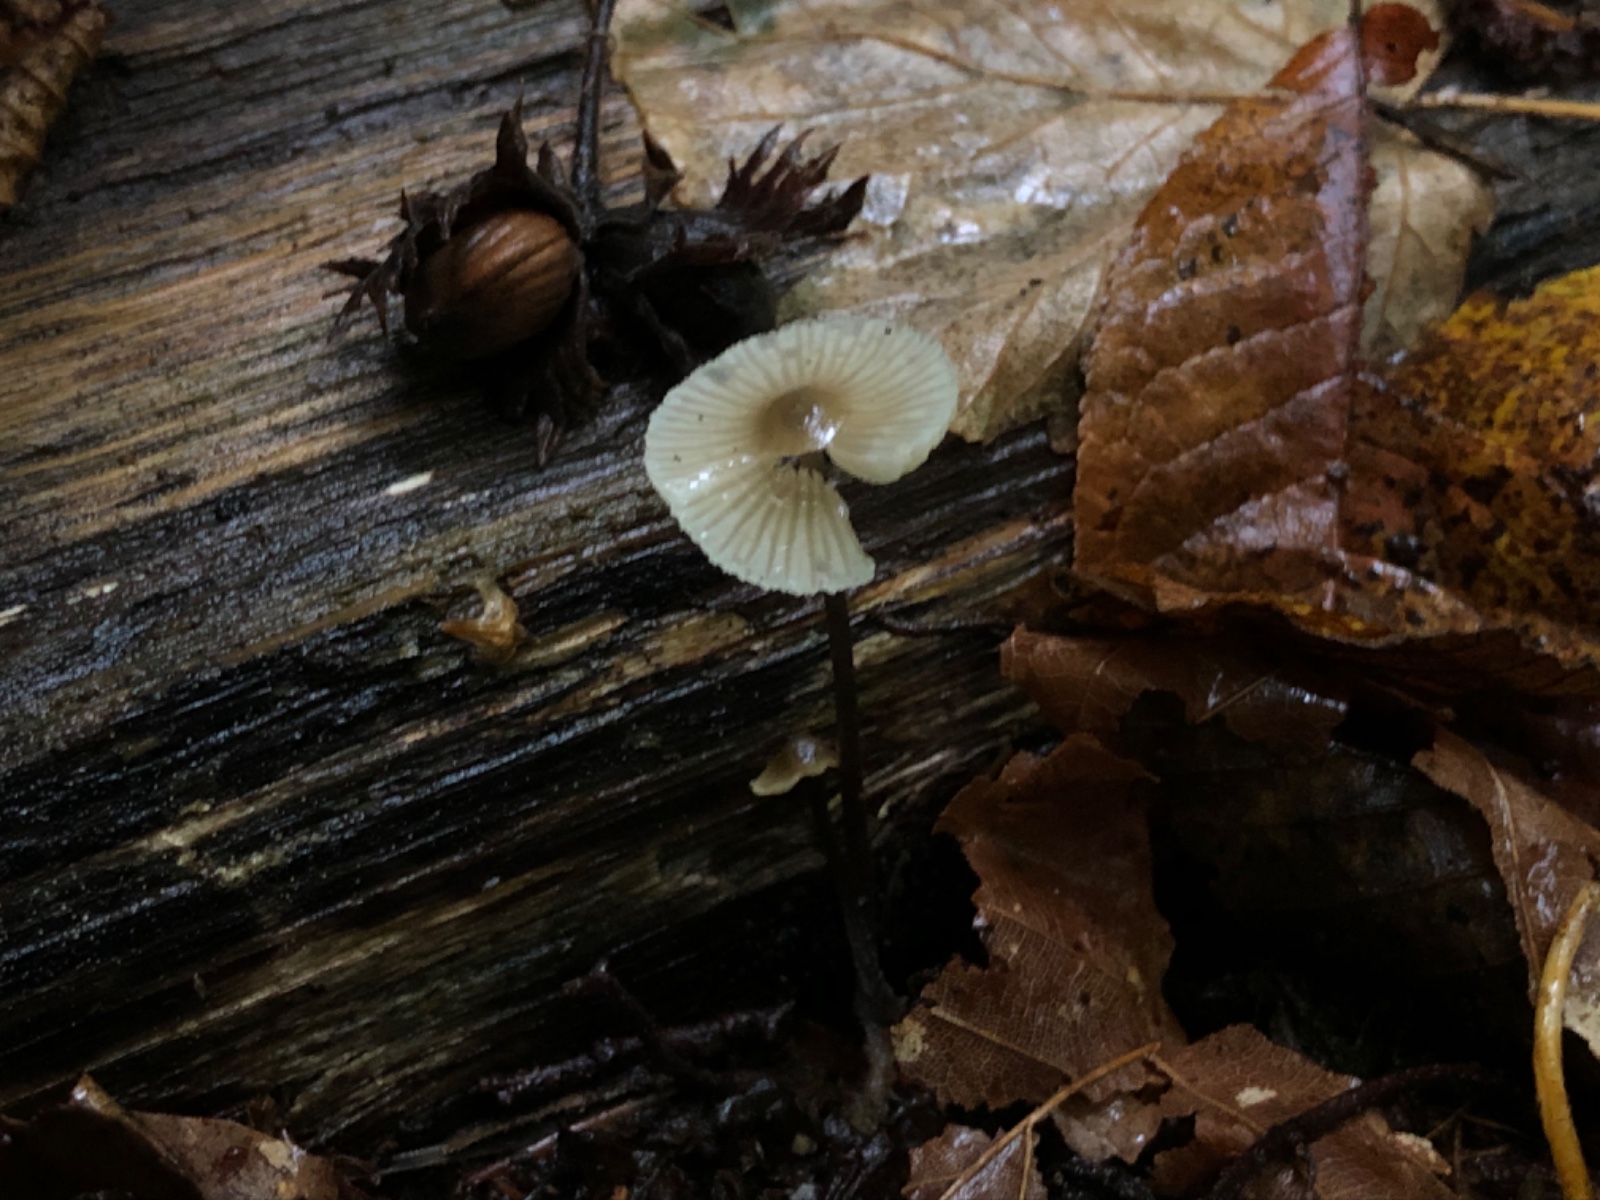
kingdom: Fungi
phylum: Basidiomycota
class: Agaricomycetes
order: Agaricales
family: Mycenaceae
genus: Mycena
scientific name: Mycena flavescens
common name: grågul huesvamp
